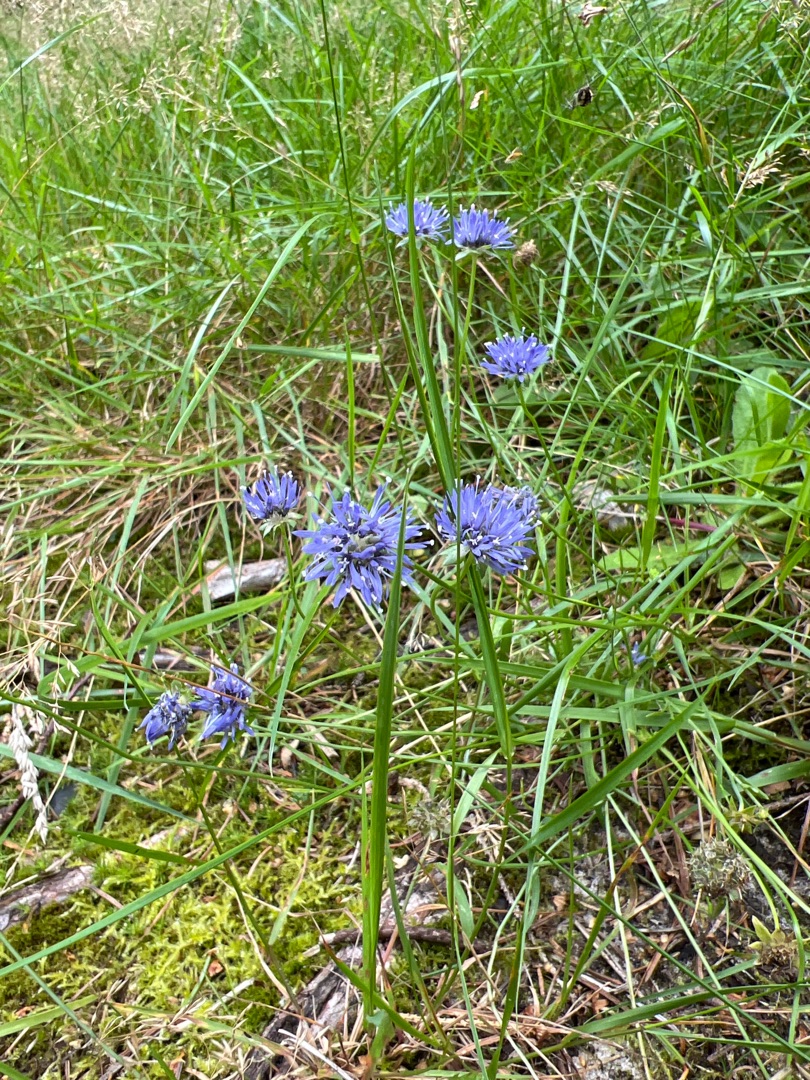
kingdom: Plantae
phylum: Tracheophyta
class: Magnoliopsida
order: Asterales
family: Campanulaceae
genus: Jasione
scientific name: Jasione montana
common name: Blåmunke
